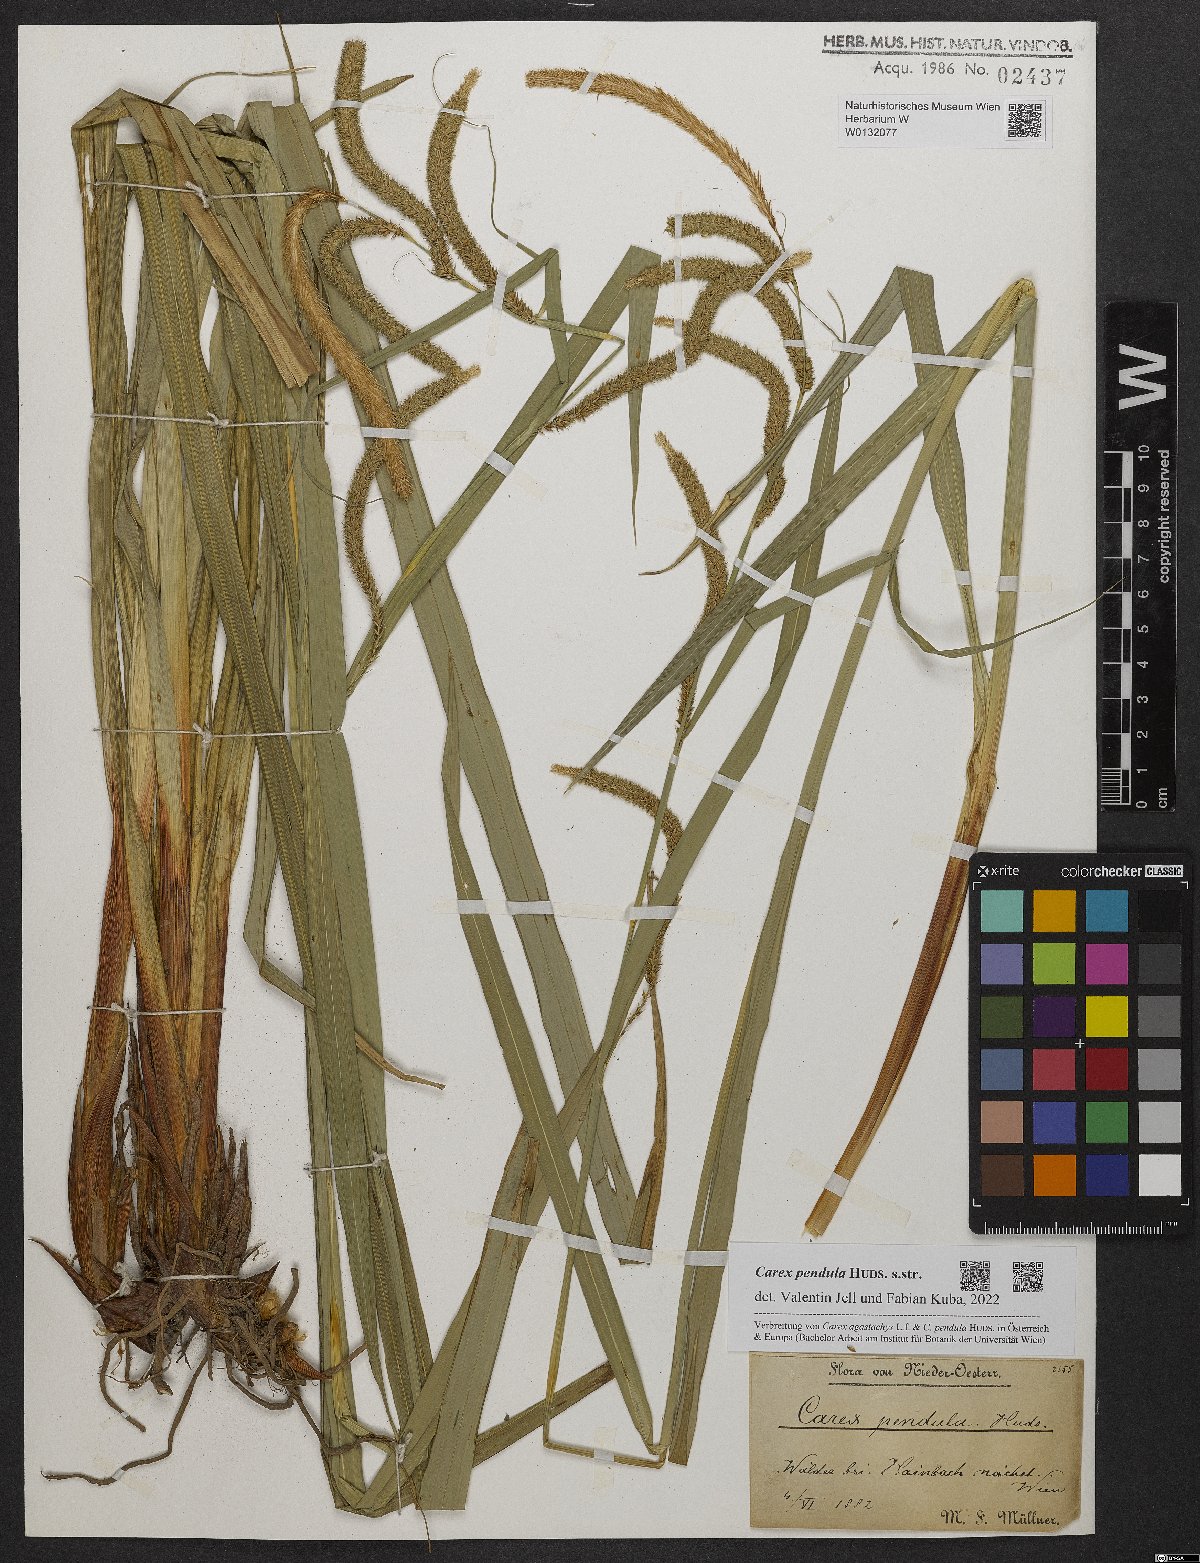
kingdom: Plantae
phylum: Tracheophyta
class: Liliopsida
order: Poales
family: Cyperaceae
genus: Carex
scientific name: Carex pendula
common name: Pendulous sedge
